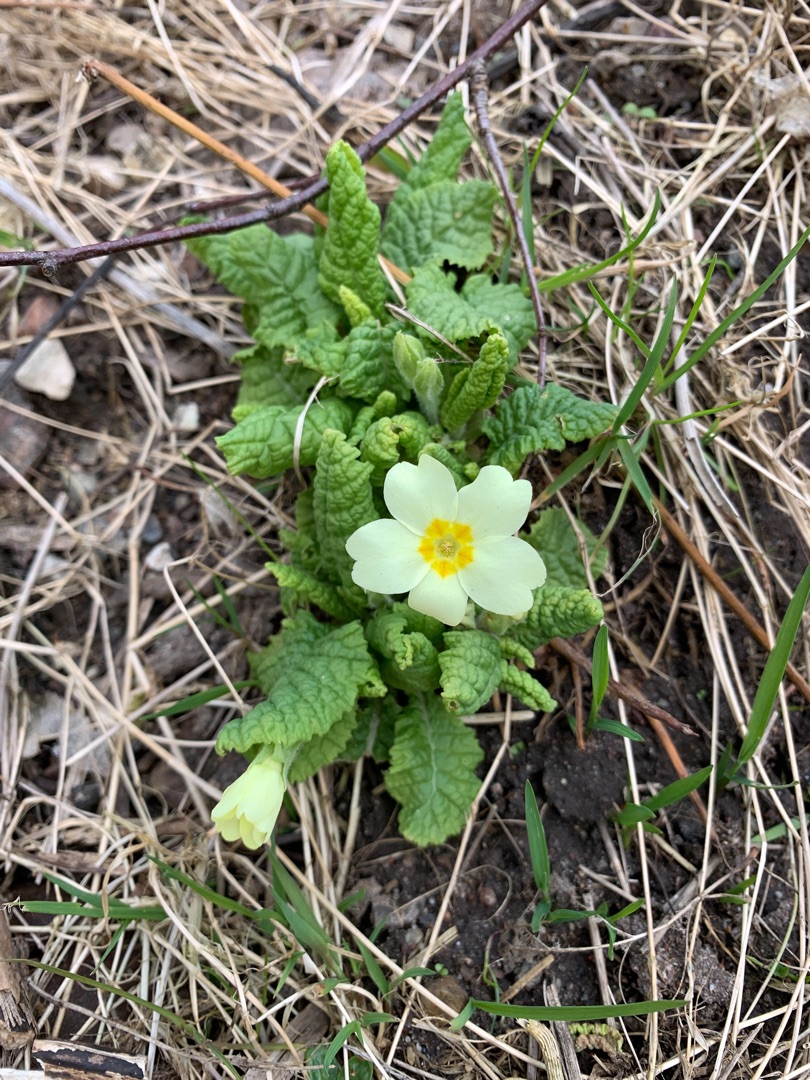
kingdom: Plantae
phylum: Tracheophyta
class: Magnoliopsida
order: Ericales
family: Primulaceae
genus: Primula
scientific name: Primula vulgaris
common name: Storblomstret kodriver
